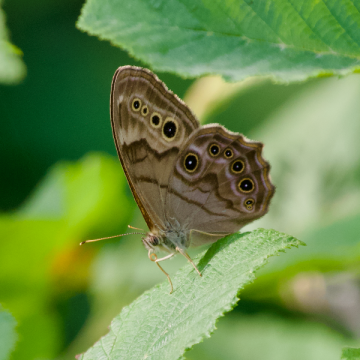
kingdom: Animalia
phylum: Arthropoda
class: Insecta
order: Lepidoptera
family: Nymphalidae
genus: Lethe
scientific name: Lethe anthedon
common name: Northern Pearly-Eye
